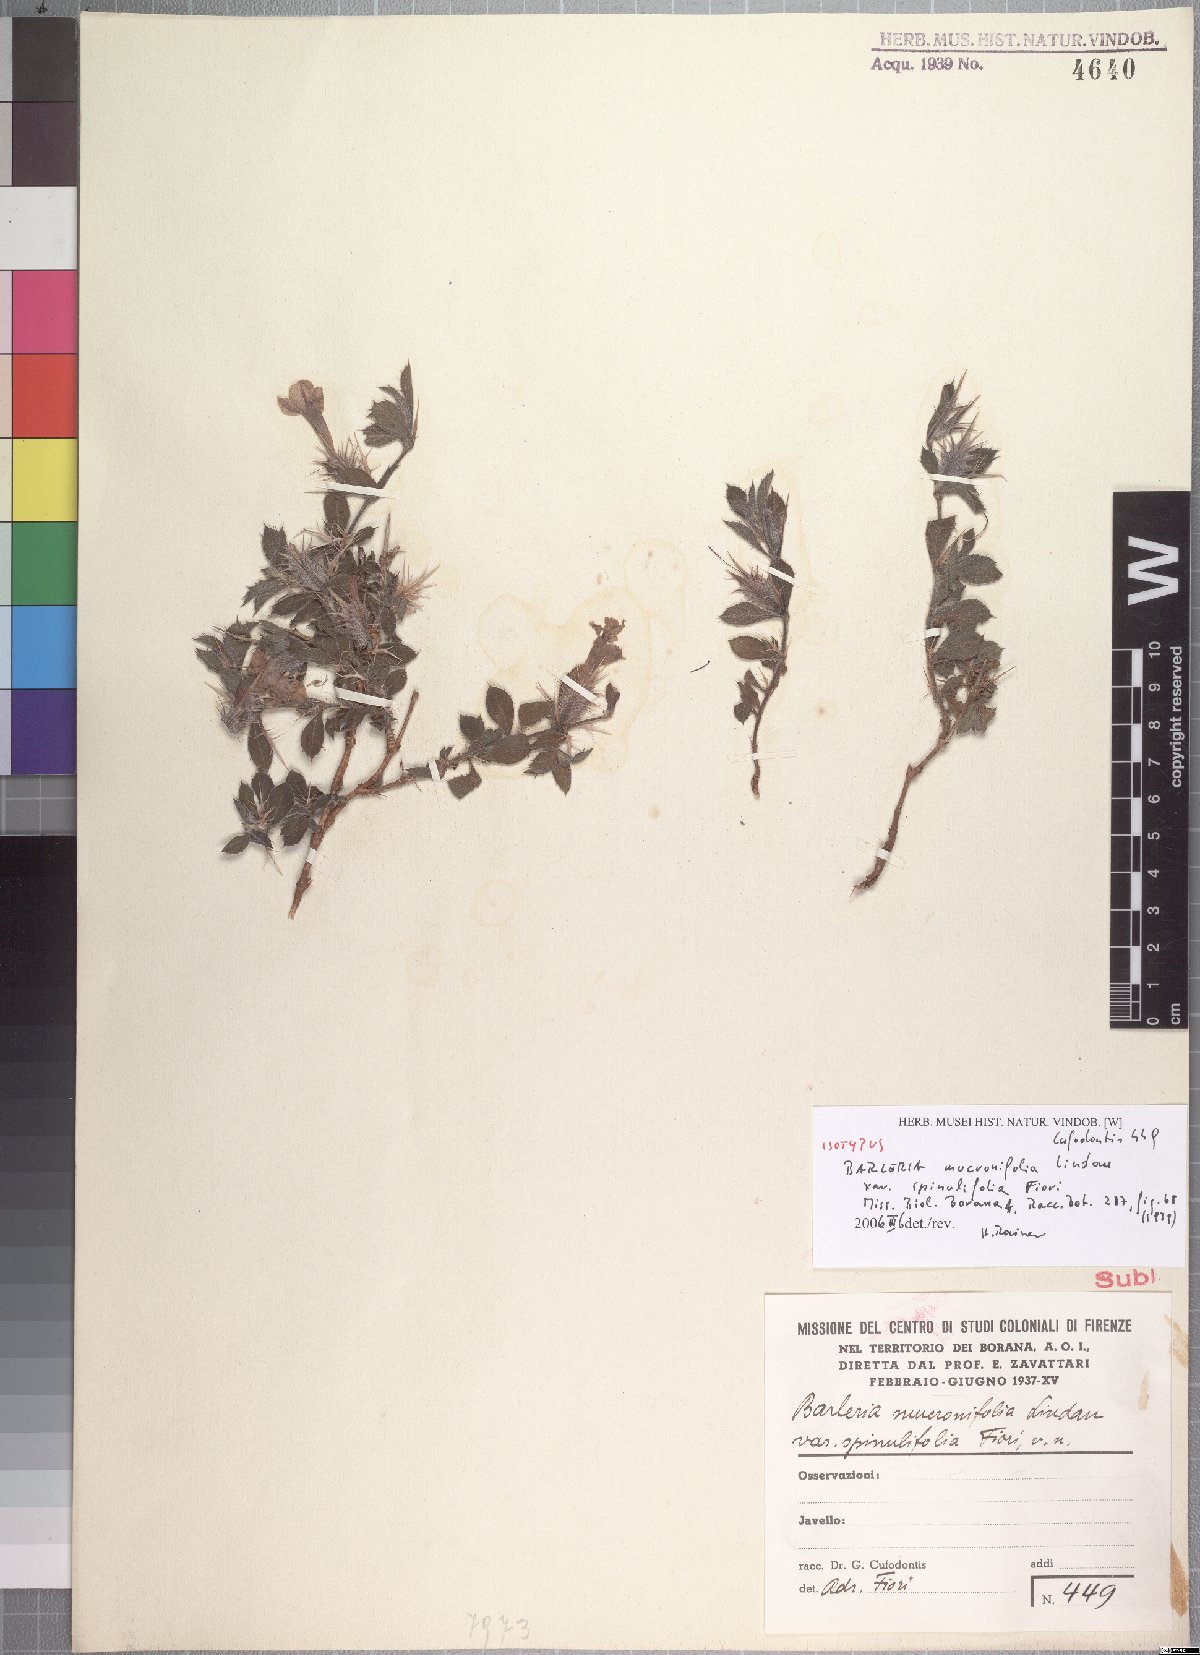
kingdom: Plantae
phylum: Tracheophyta
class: Magnoliopsida
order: Lamiales
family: Acanthaceae
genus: Barleria
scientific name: Barleria delamerei
